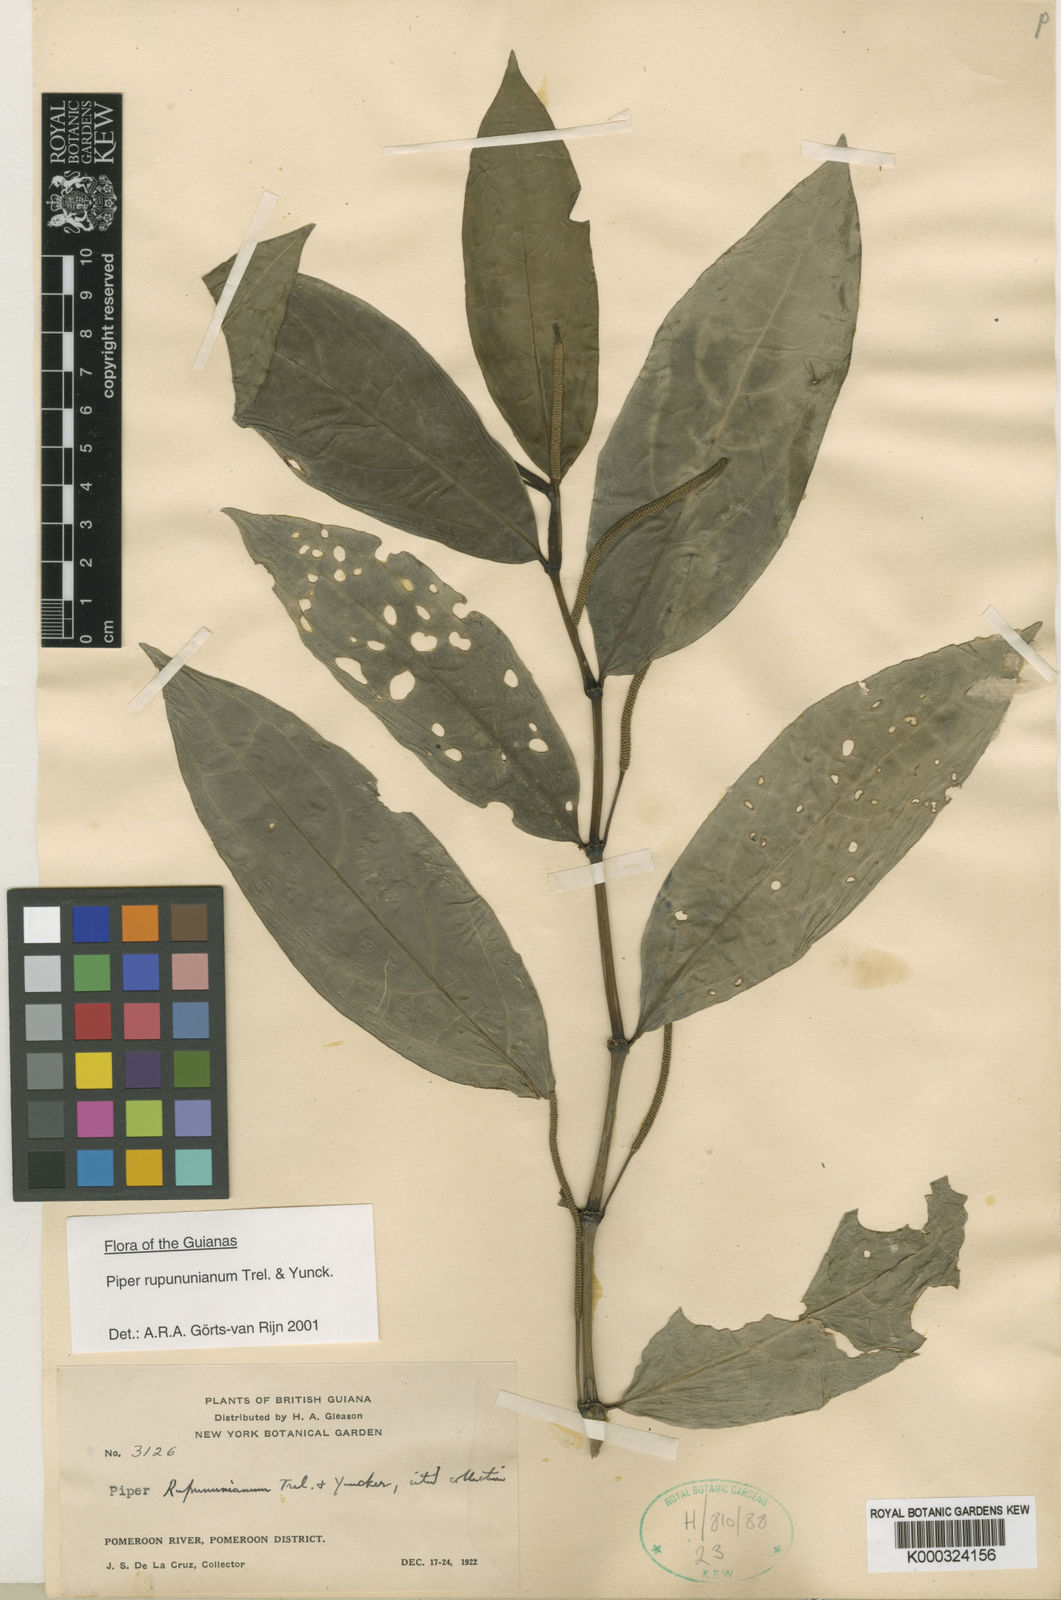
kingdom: Plantae
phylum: Tracheophyta
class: Magnoliopsida
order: Piperales
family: Piperaceae
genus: Piper
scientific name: Piper rupununianum
